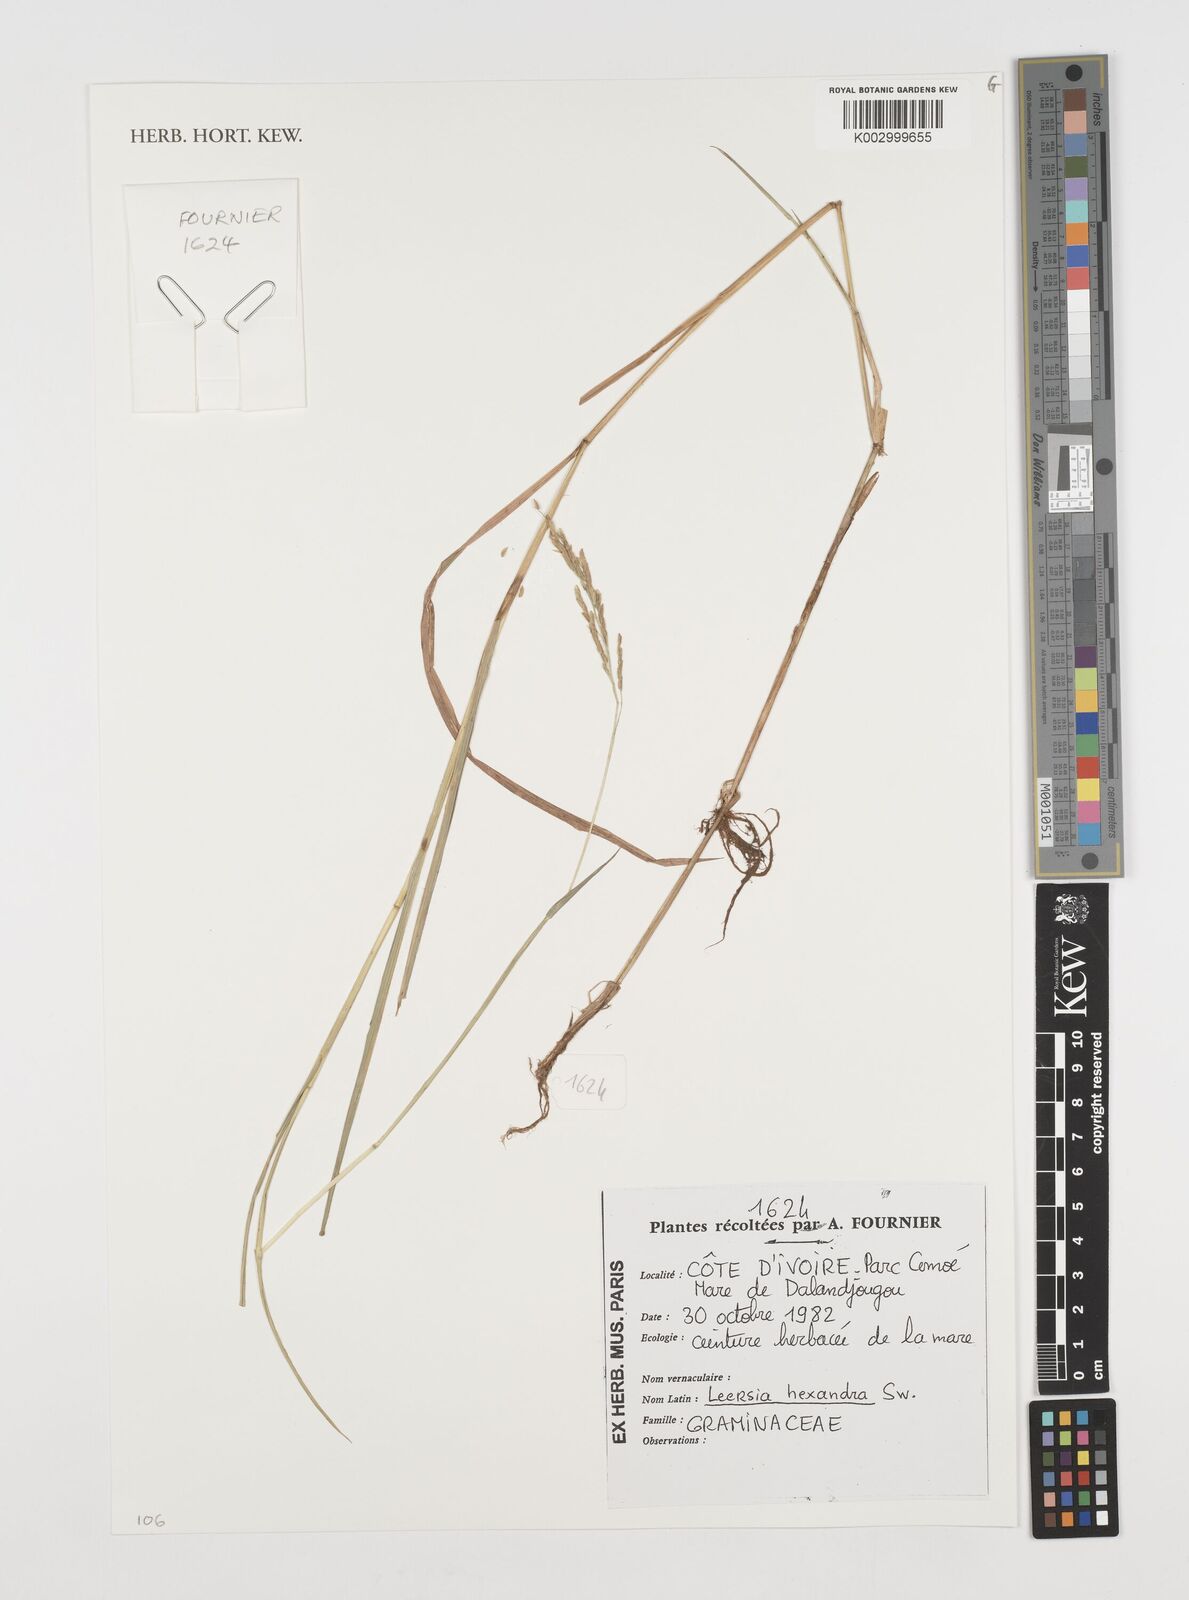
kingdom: Plantae
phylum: Tracheophyta
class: Liliopsida
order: Poales
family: Poaceae
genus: Leersia
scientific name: Leersia hexandra
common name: Southern cut grass
